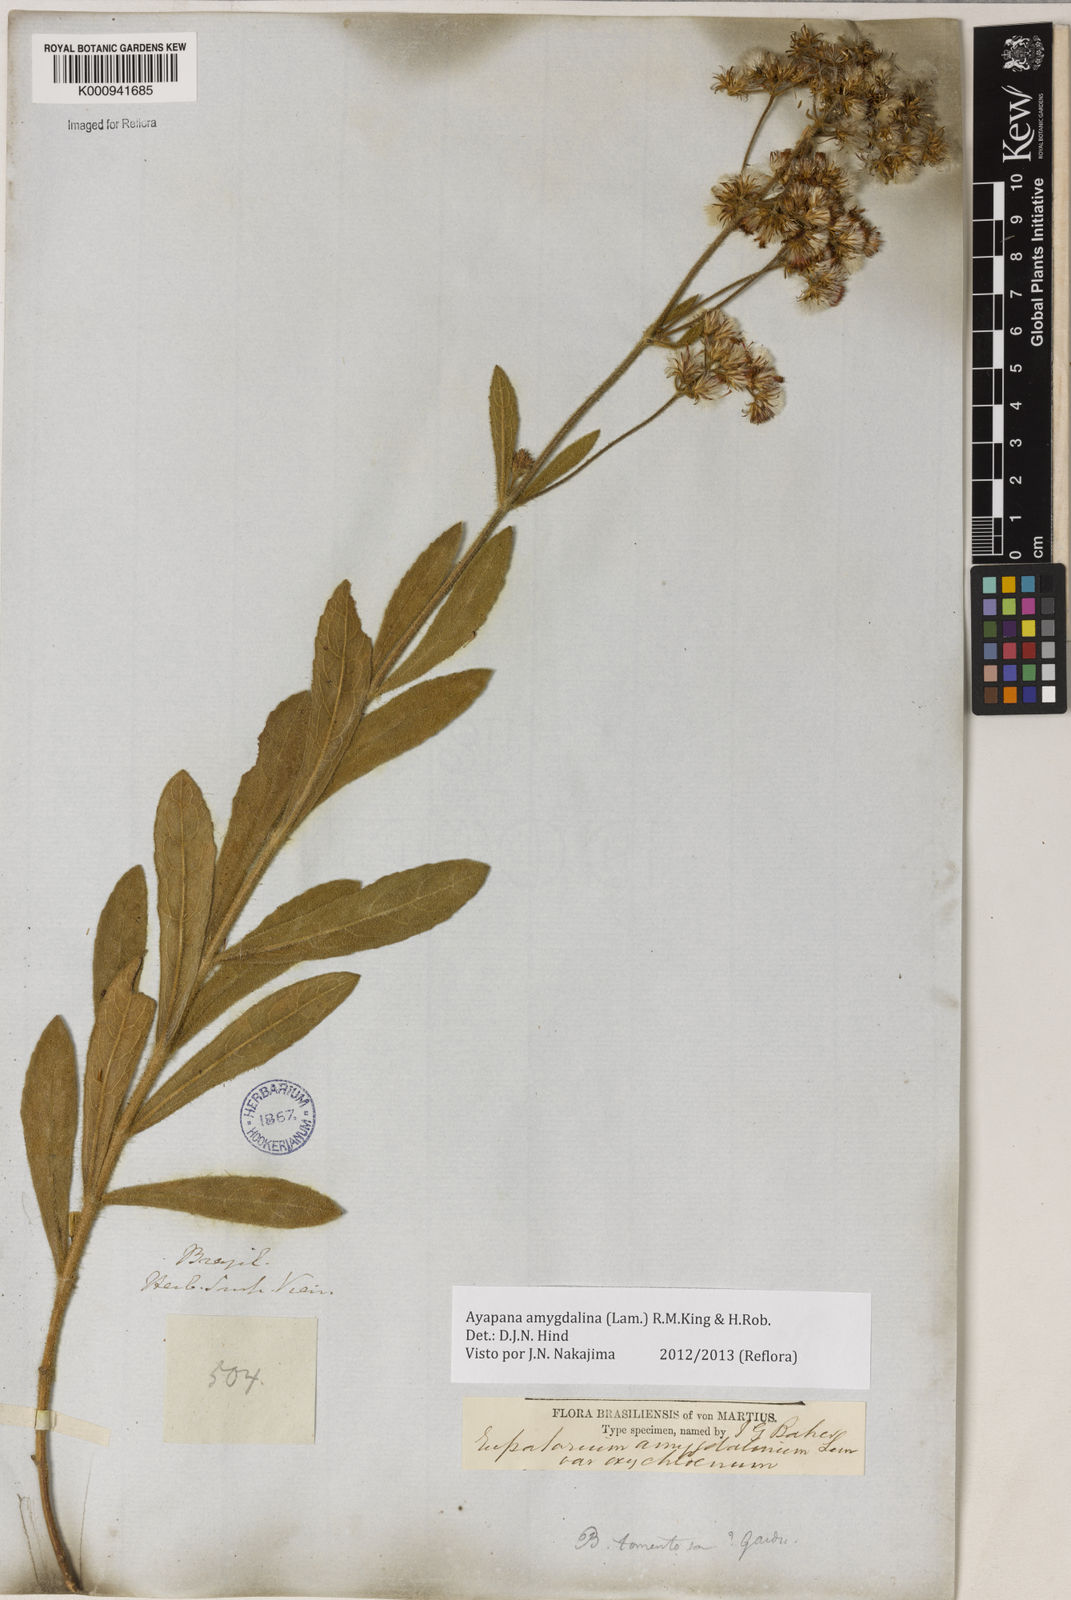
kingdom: Plantae
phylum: Tracheophyta
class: Magnoliopsida
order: Asterales
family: Asteraceae
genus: Ayapana
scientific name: Ayapana amygdalina
